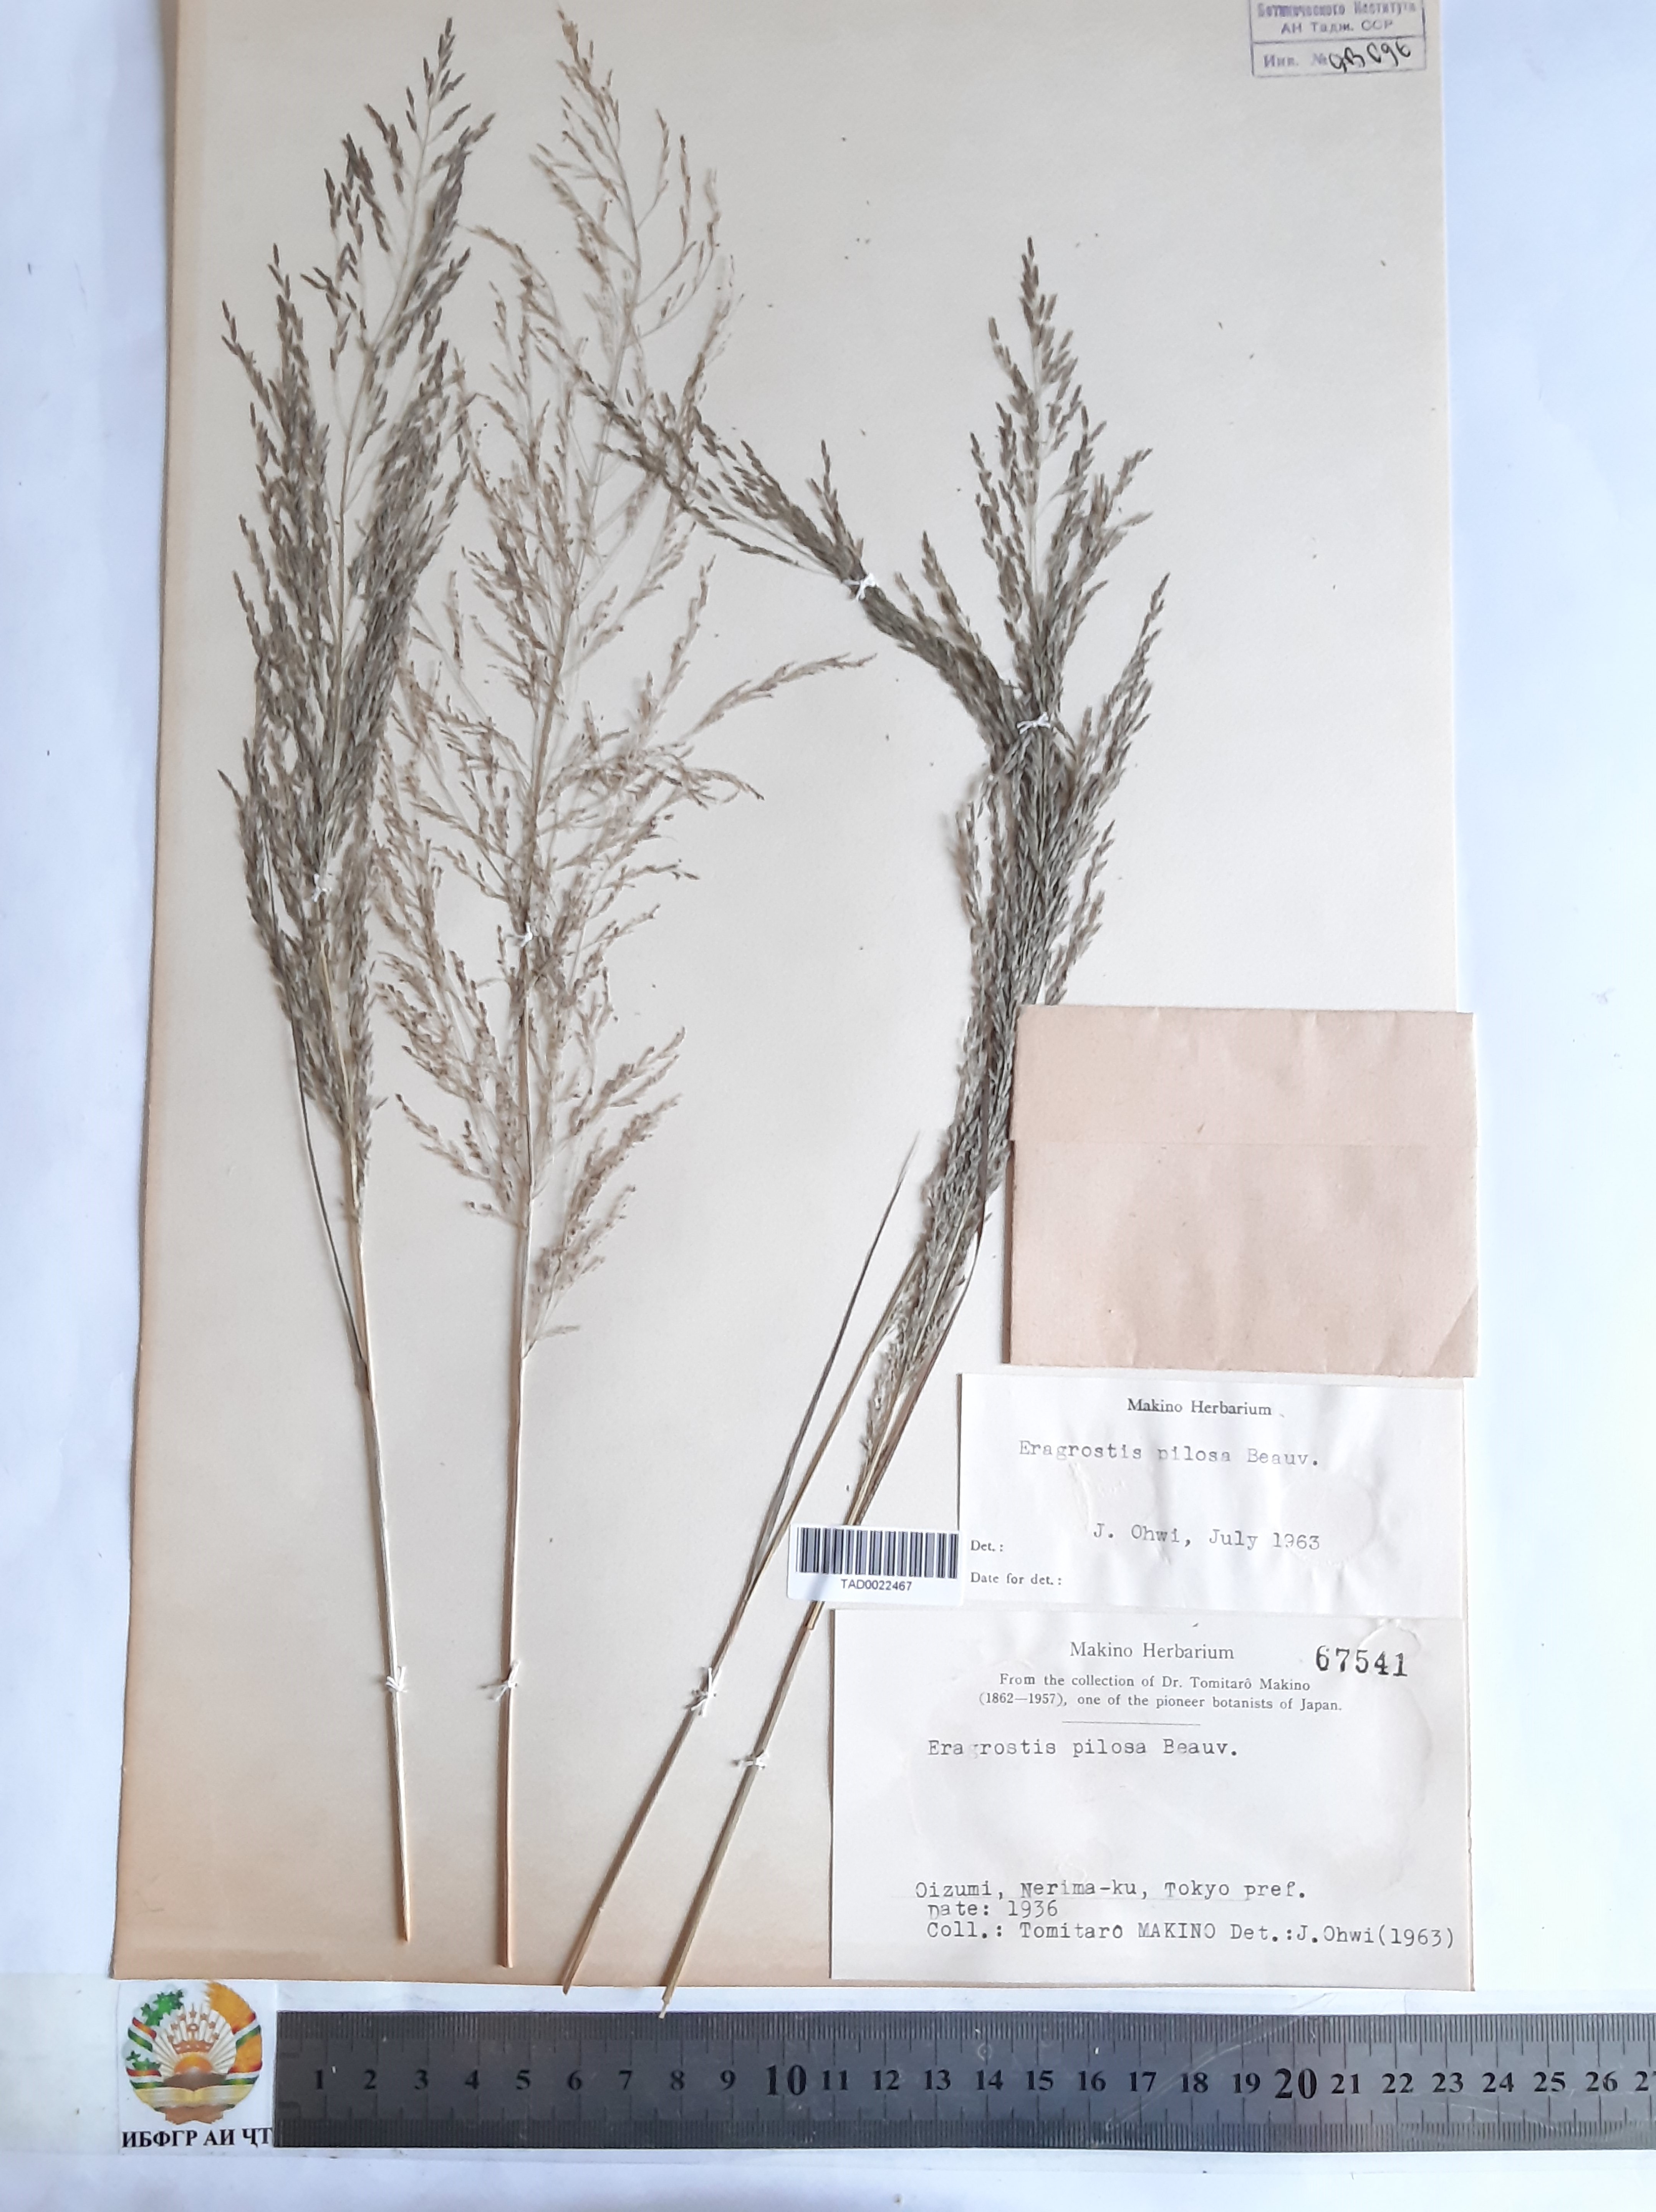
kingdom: Plantae
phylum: Tracheophyta
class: Liliopsida
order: Poales
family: Poaceae
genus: Eragrostis
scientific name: Eragrostis pilosa
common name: Indian lovegrass
